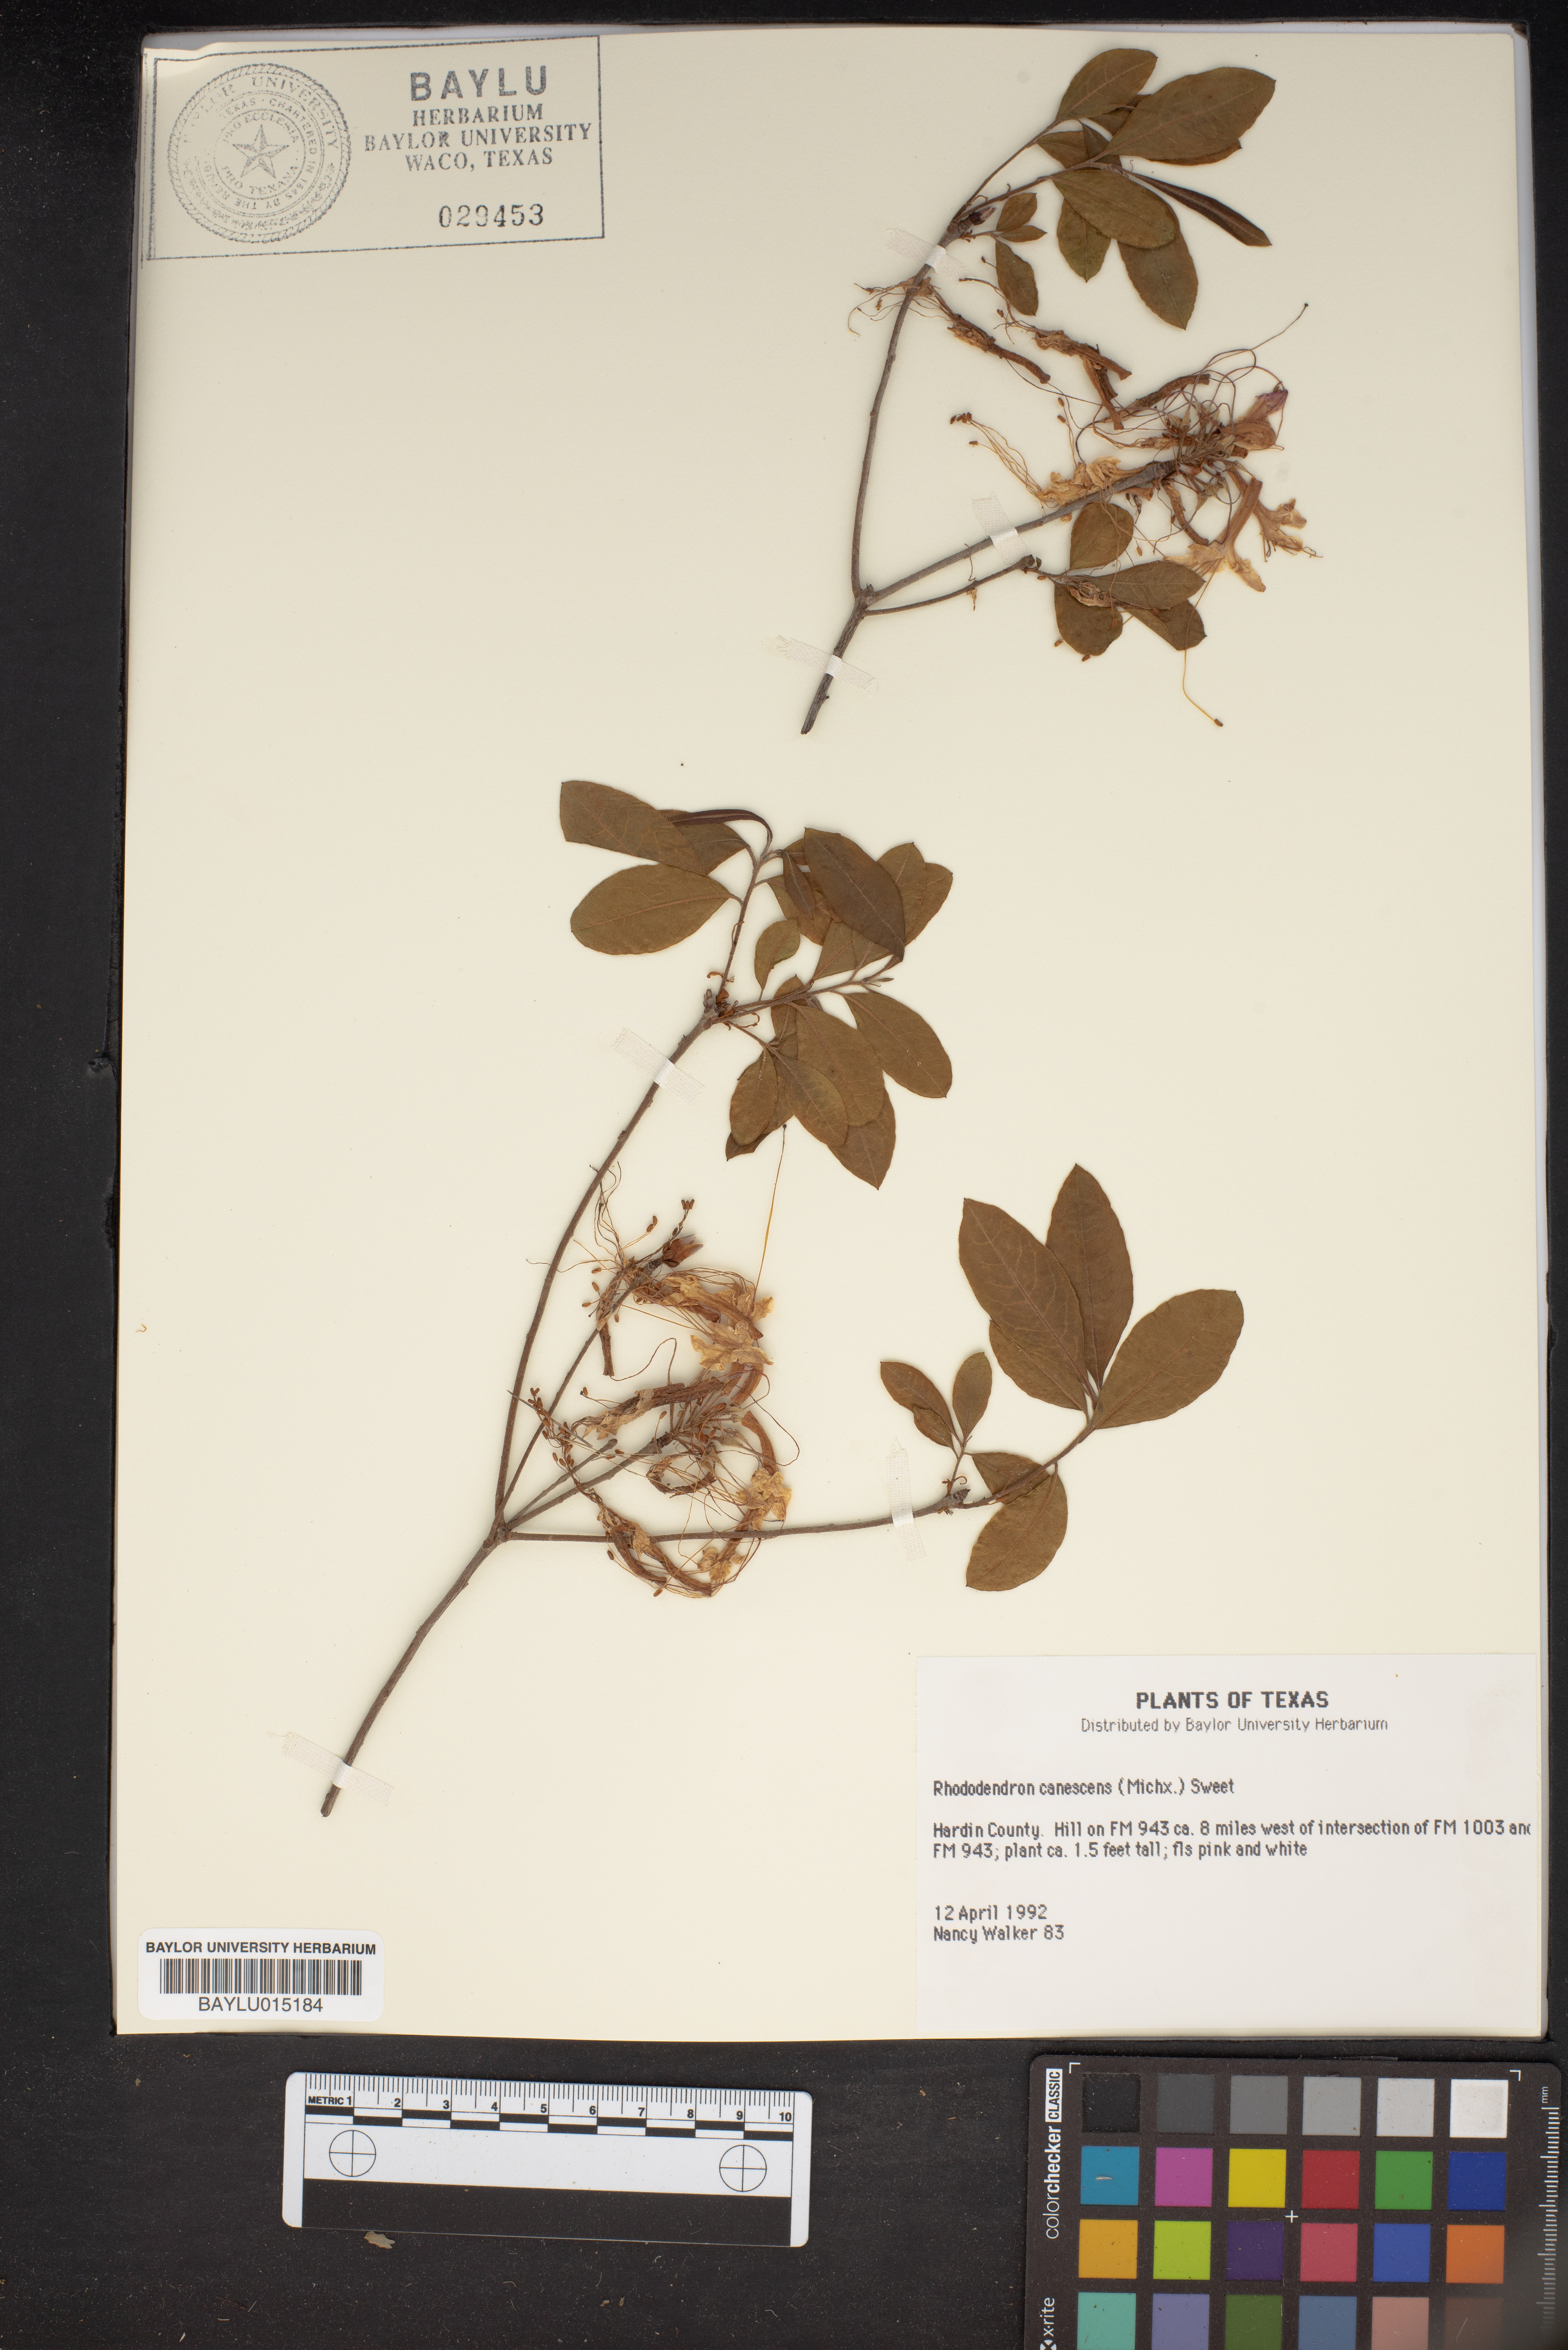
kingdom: Plantae
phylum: Tracheophyta
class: Magnoliopsida
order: Ericales
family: Ericaceae
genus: Rhododendron
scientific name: Rhododendron canescens
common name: Mountain azalea
